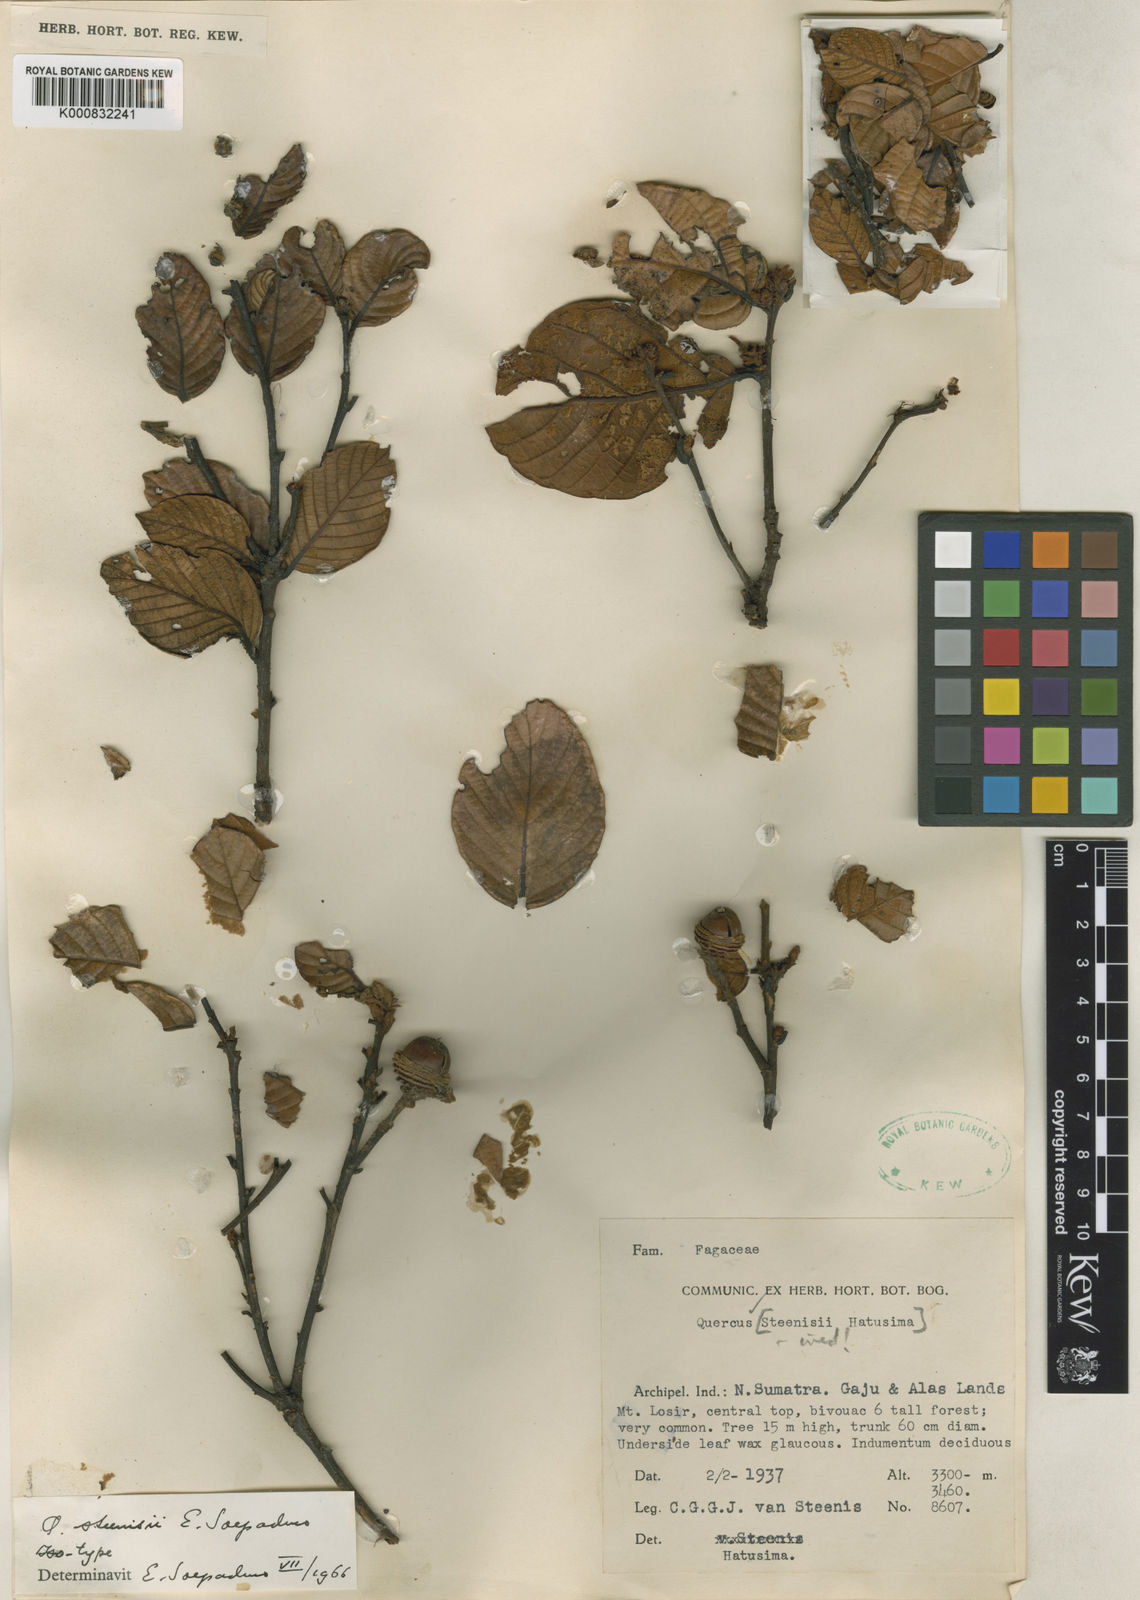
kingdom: Plantae
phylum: Tracheophyta
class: Magnoliopsida
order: Fagales
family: Fagaceae
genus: Quercus
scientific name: Quercus steenisii
